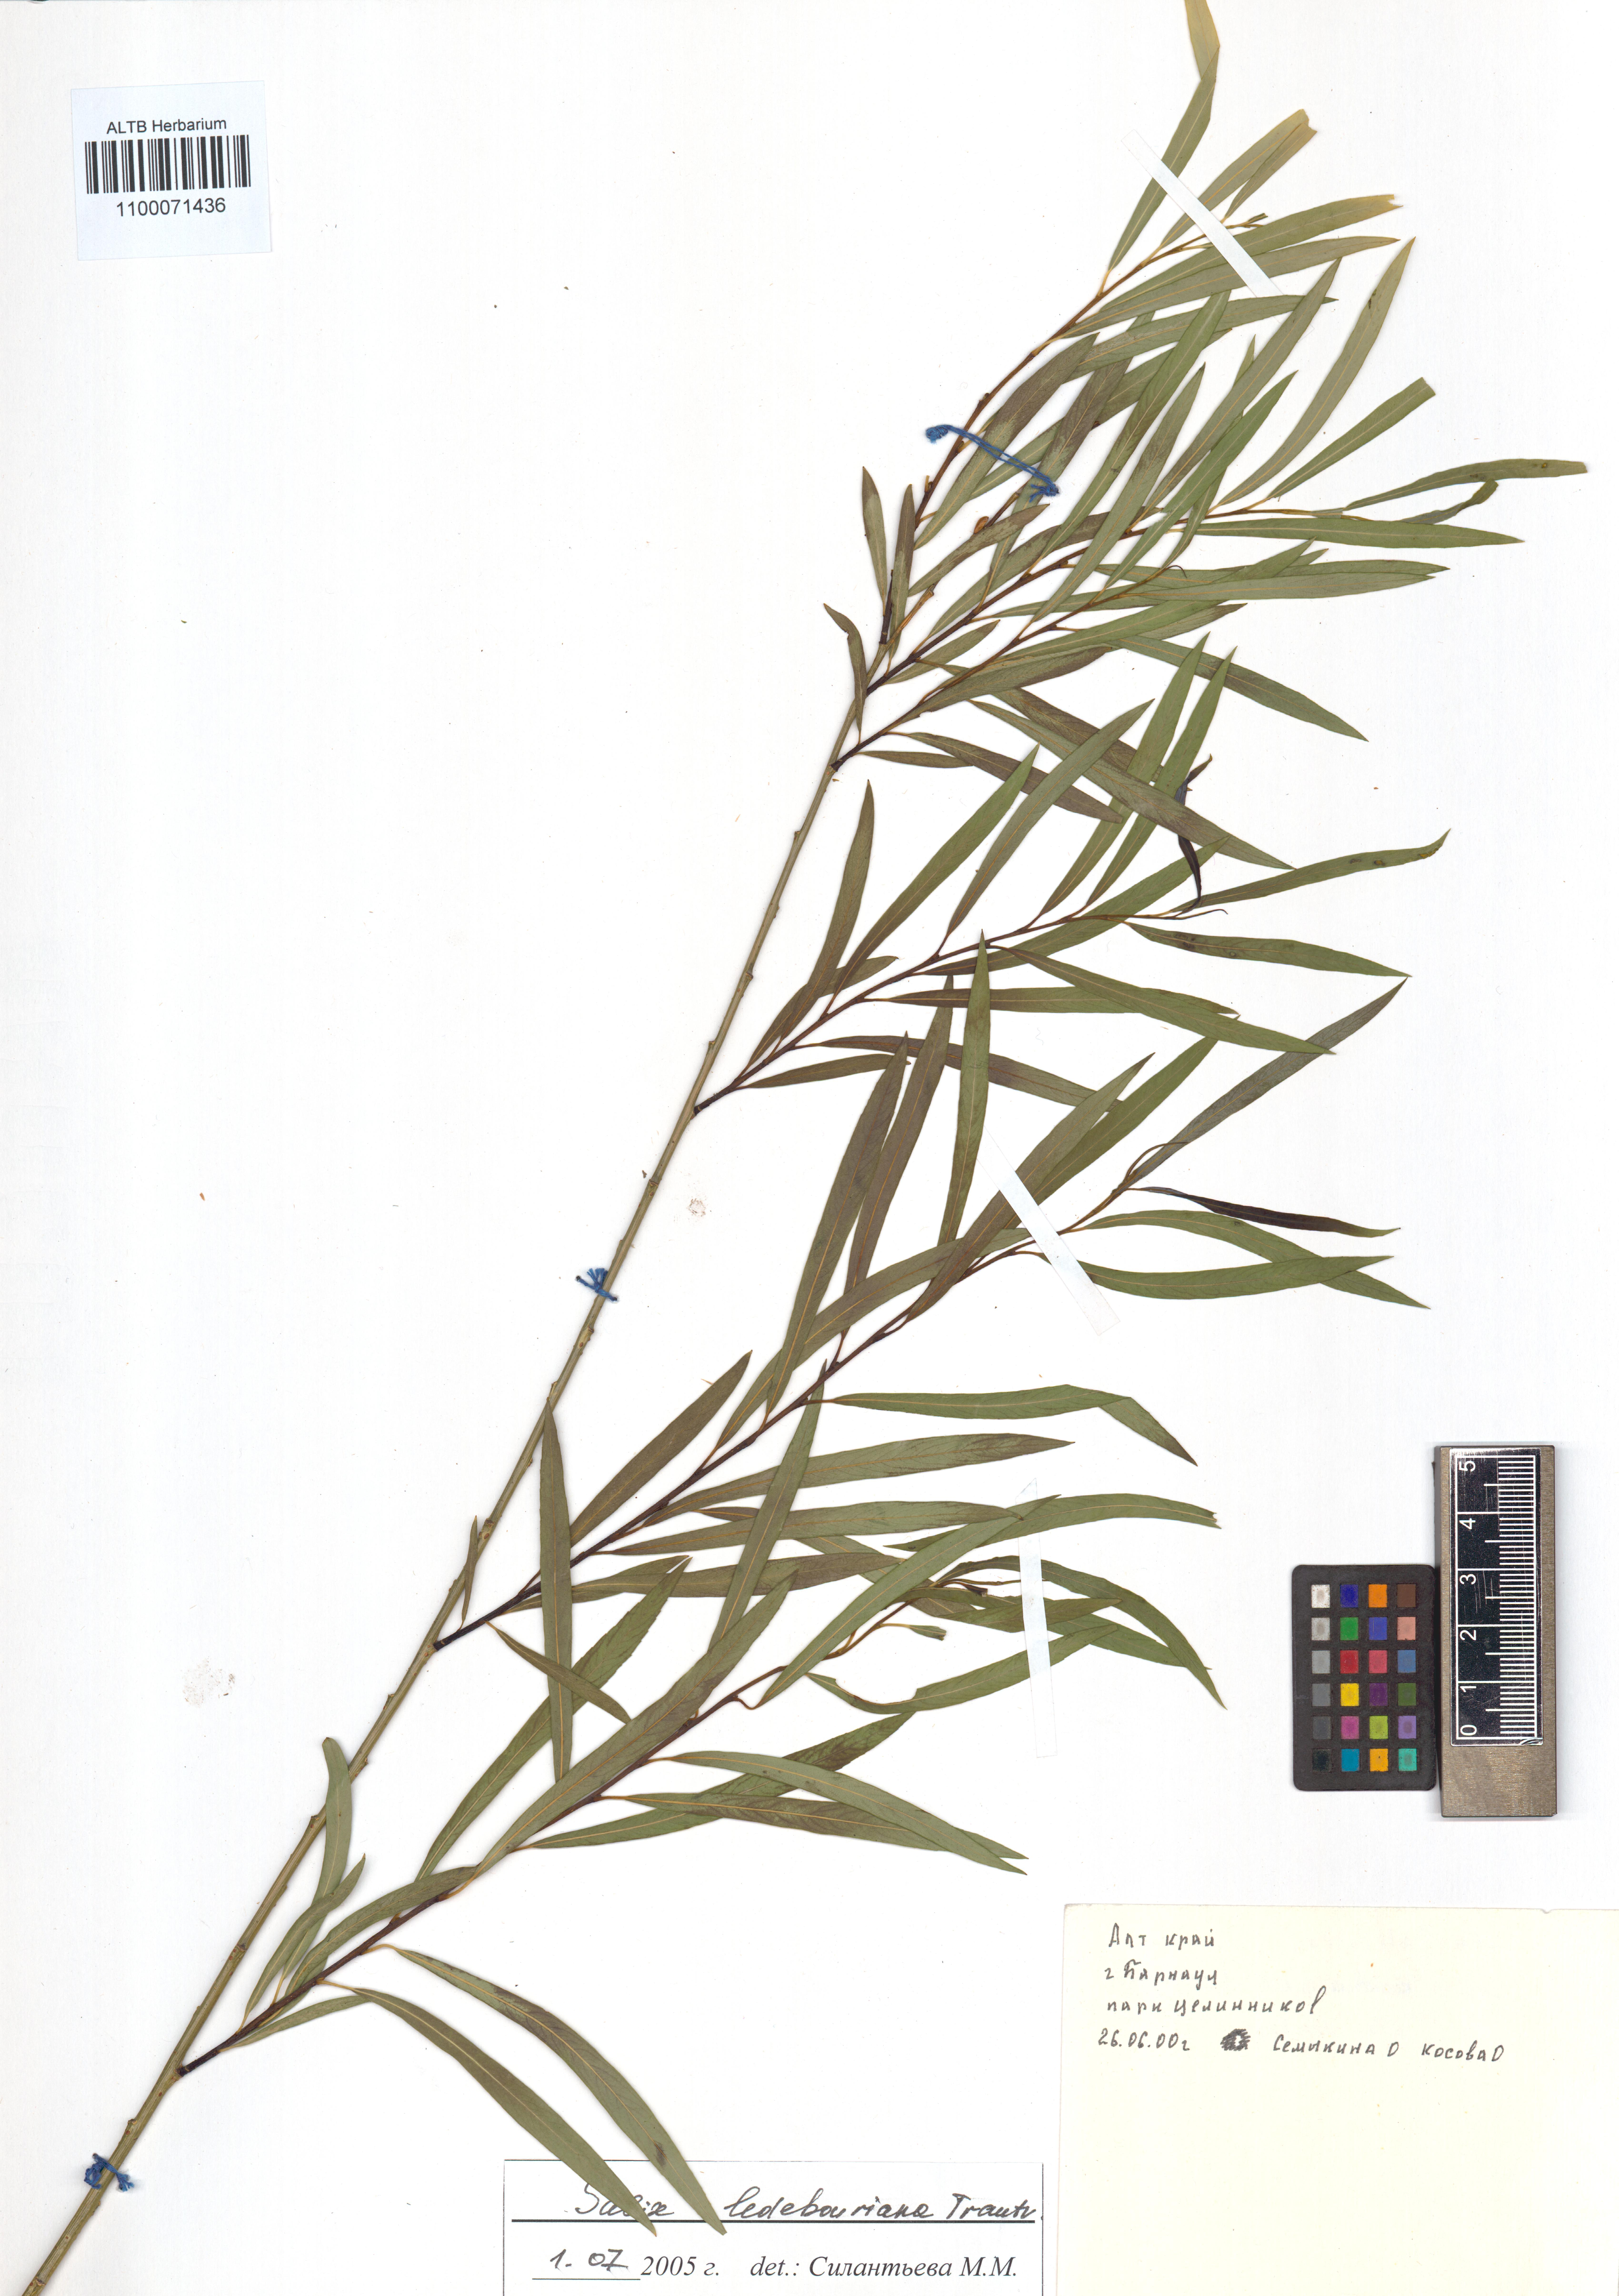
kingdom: Plantae
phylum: Tracheophyta
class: Magnoliopsida
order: Malpighiales
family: Salicaceae
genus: Salix
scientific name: Salix ledebouriana
